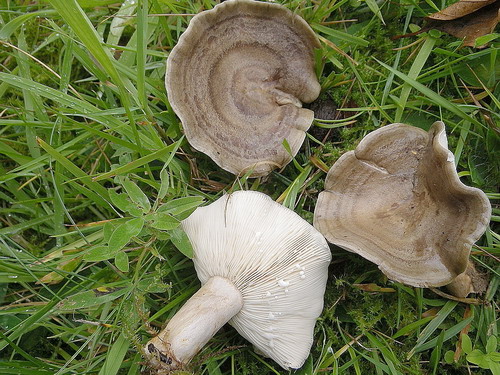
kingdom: Fungi
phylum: Basidiomycota
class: Agaricomycetes
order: Russulales
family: Russulaceae
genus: Lactarius
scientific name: Lactarius fluens
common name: lysrandet mælkehat
